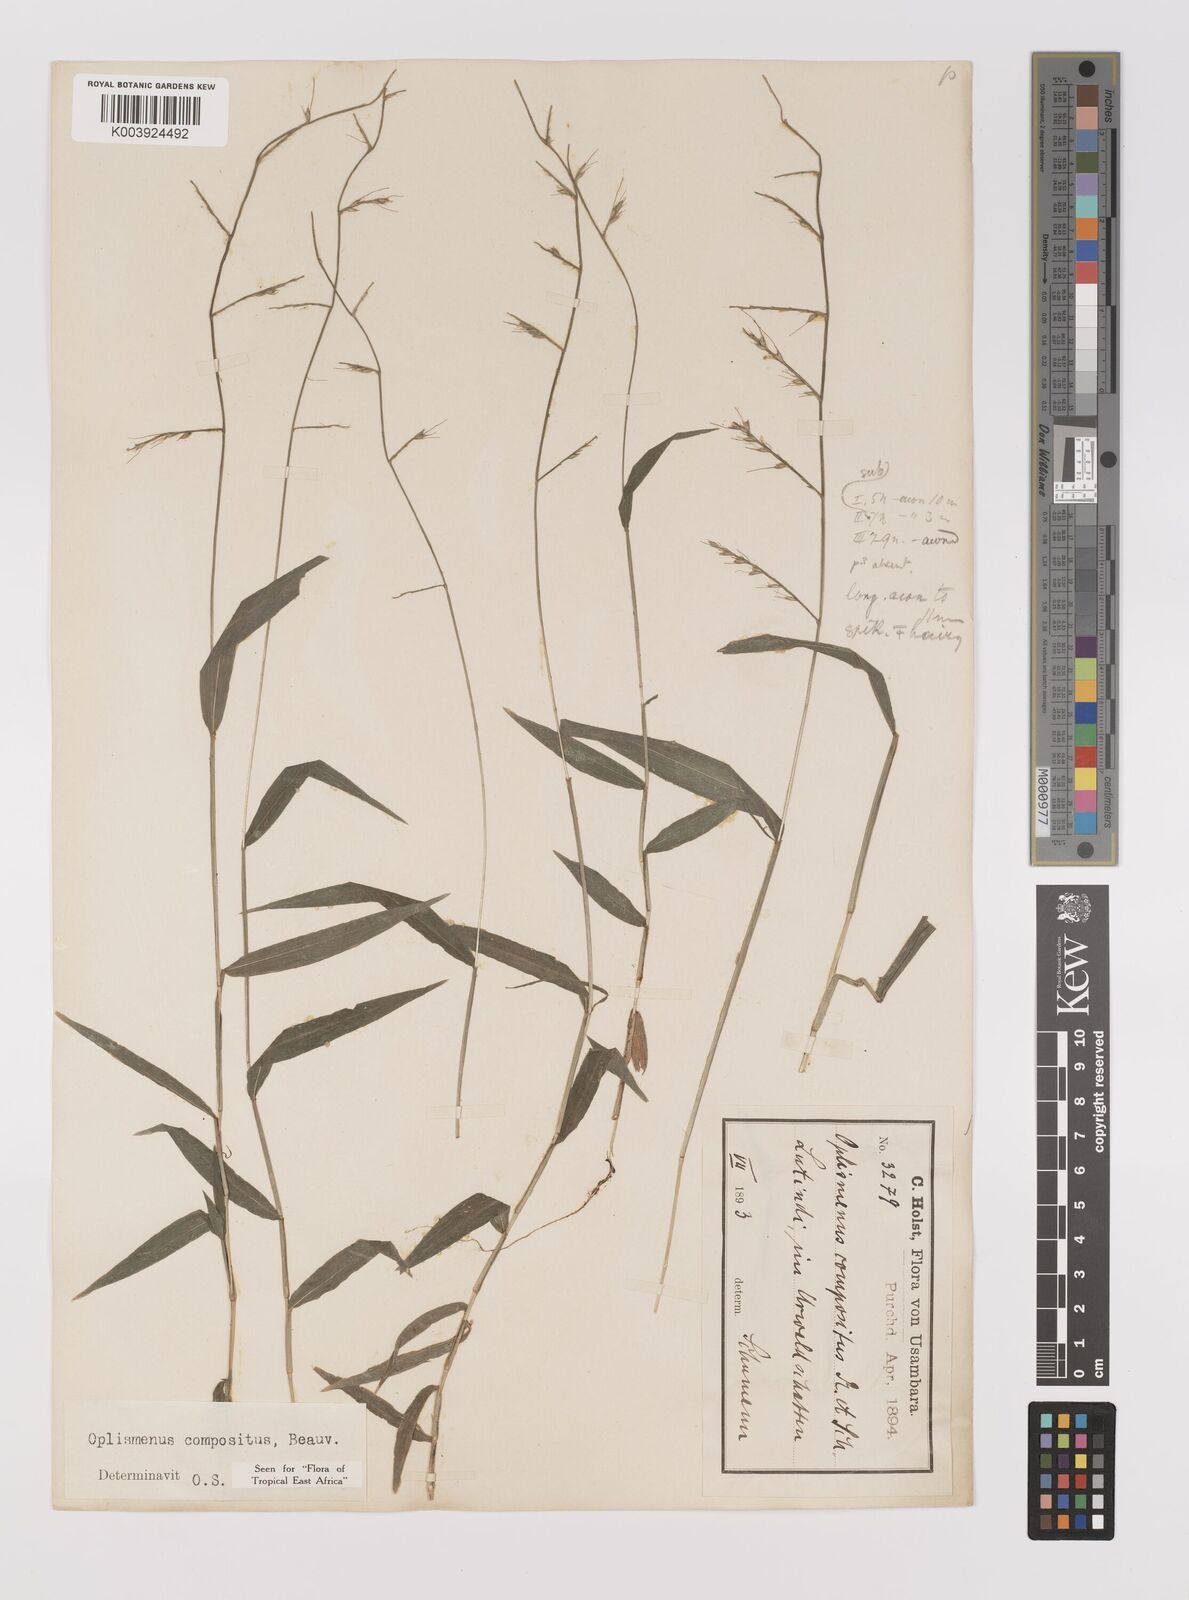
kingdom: Plantae
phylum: Tracheophyta
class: Liliopsida
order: Poales
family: Poaceae
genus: Oplismenus
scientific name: Oplismenus compositus
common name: Running mountain grass
